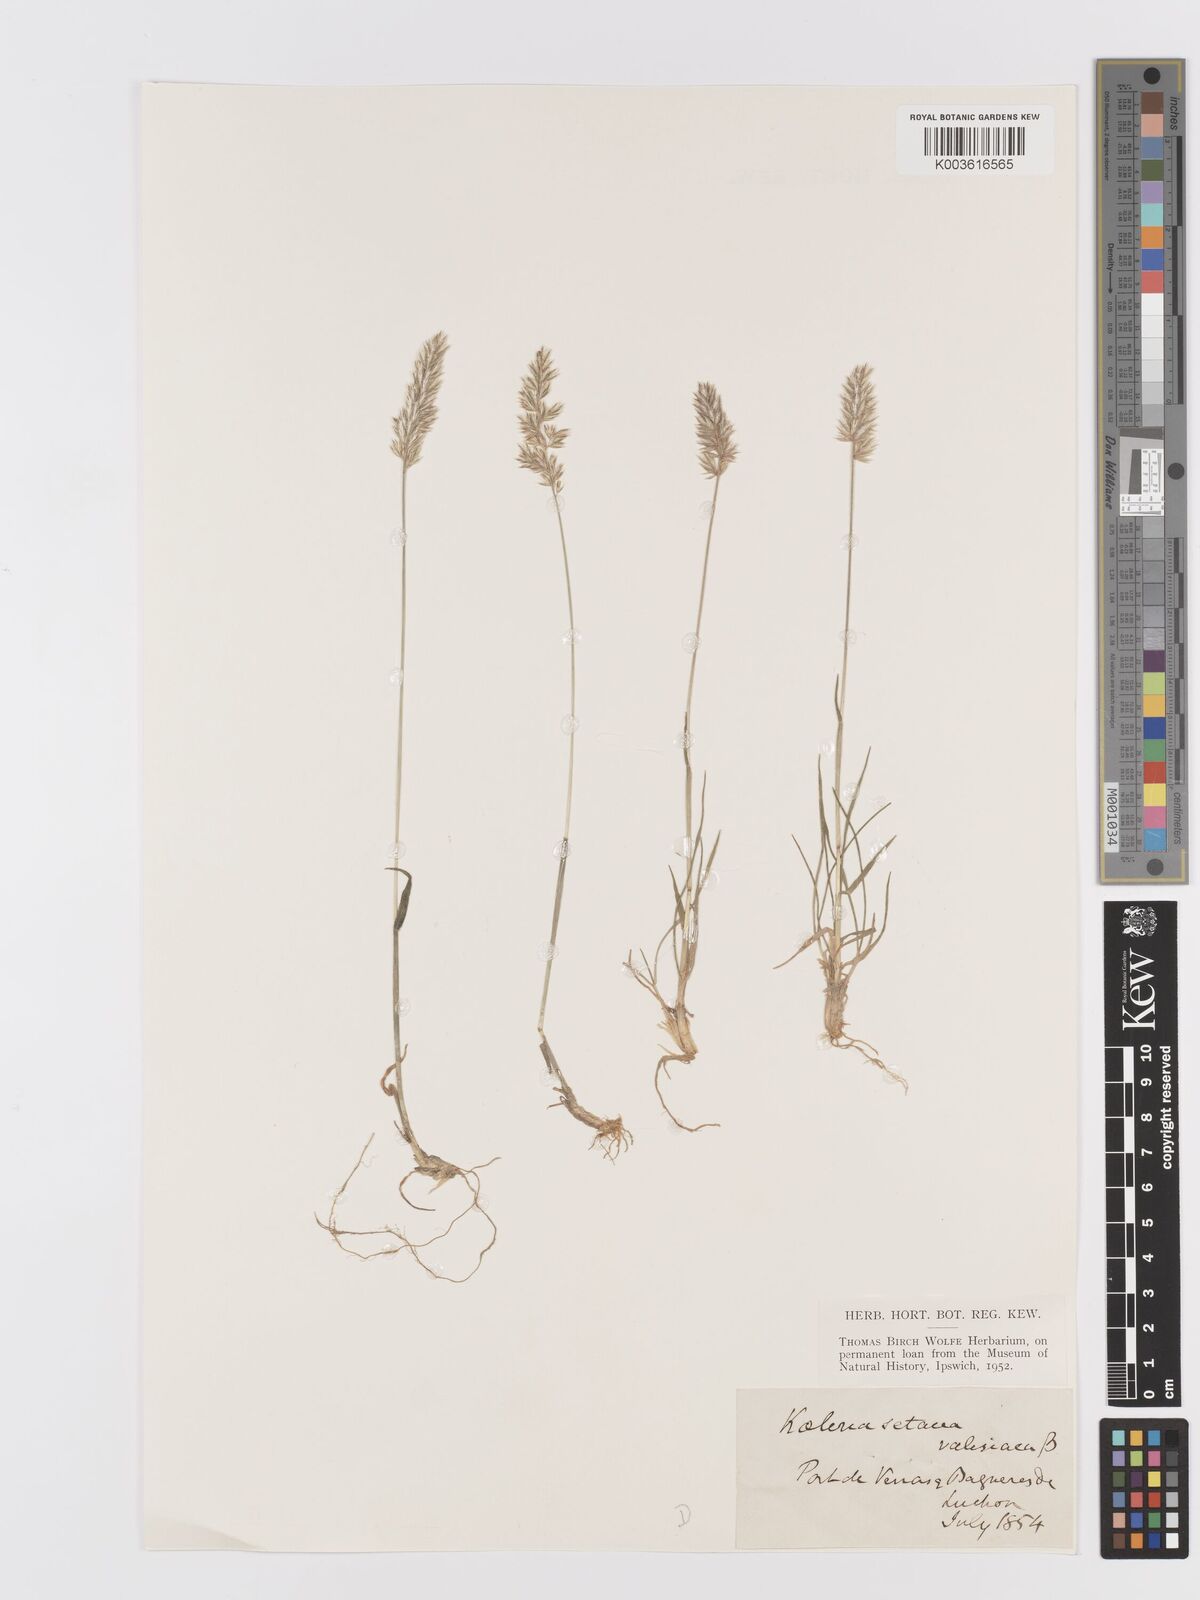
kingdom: Plantae
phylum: Tracheophyta
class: Liliopsida
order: Poales
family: Poaceae
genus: Koeleria
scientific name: Koeleria vallesiana
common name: Somerset hair-grass
